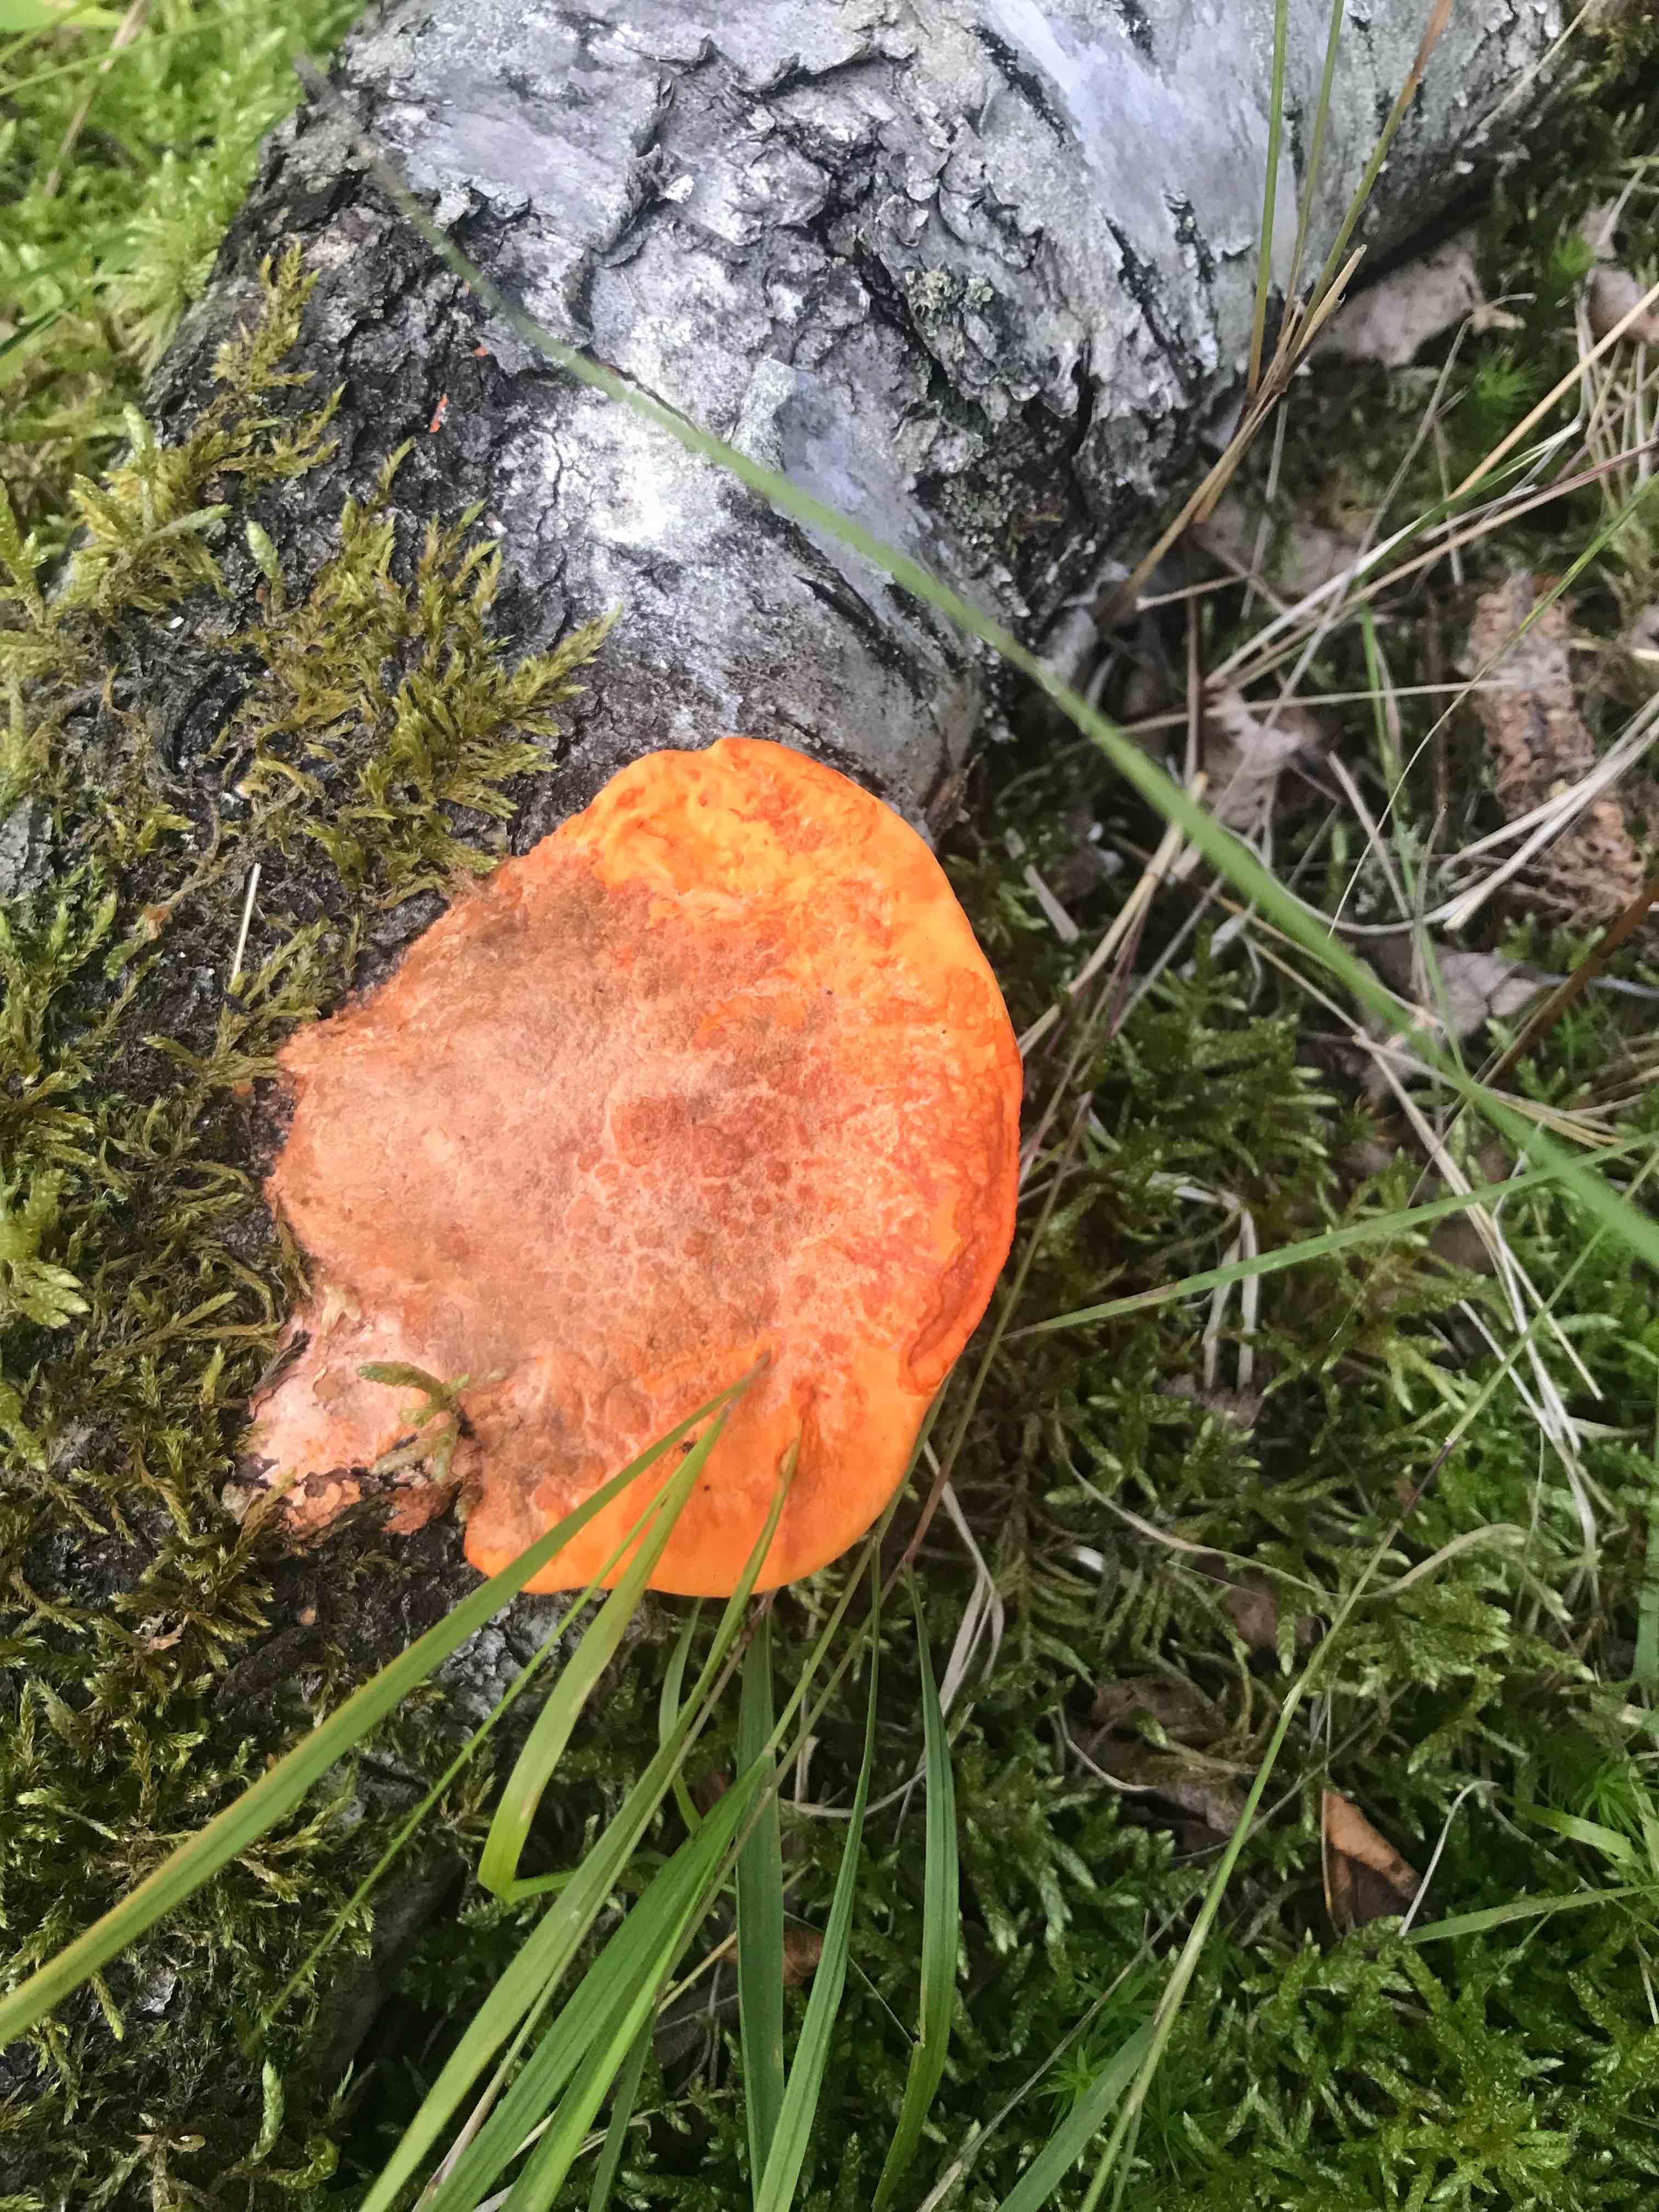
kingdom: Fungi
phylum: Basidiomycota
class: Agaricomycetes
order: Polyporales
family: Polyporaceae
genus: Trametes
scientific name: Trametes cinnabarina
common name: cinnoberporesvamp
